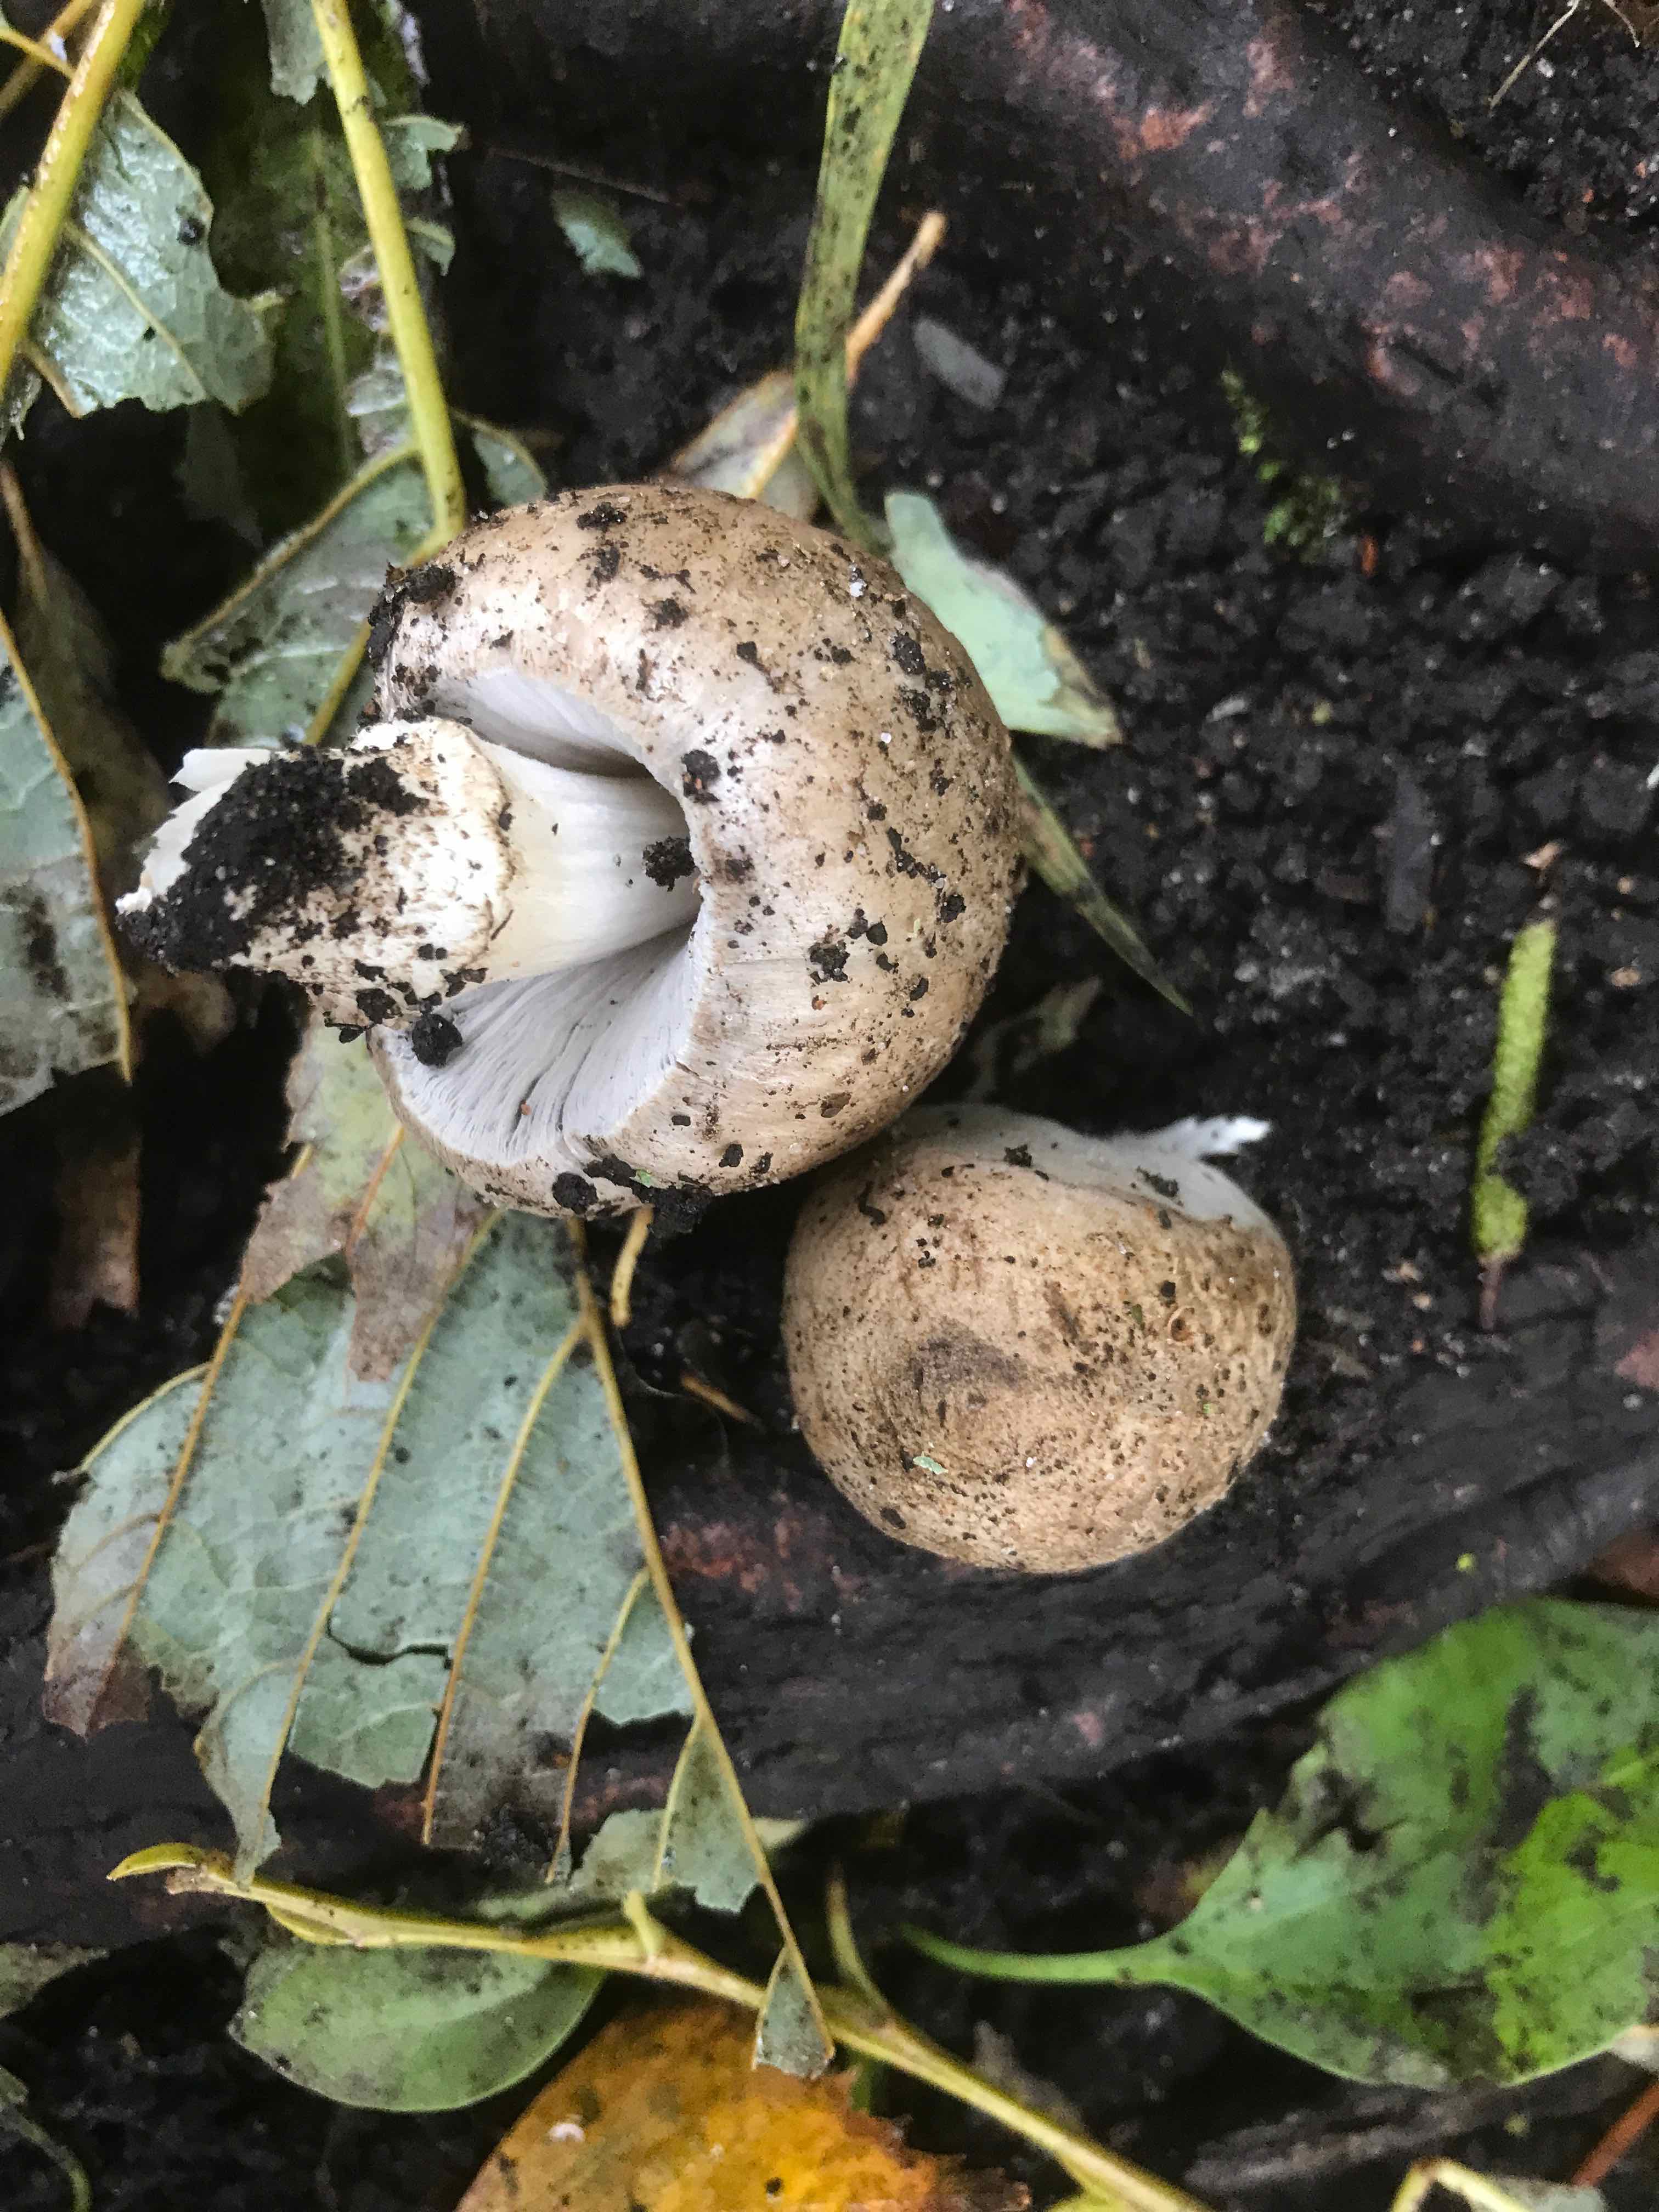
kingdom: Fungi
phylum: Basidiomycota
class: Agaricomycetes
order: Agaricales
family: Psathyrellaceae
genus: Coprinopsis
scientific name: Coprinopsis romagnesiana
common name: brunskællet blækhat
